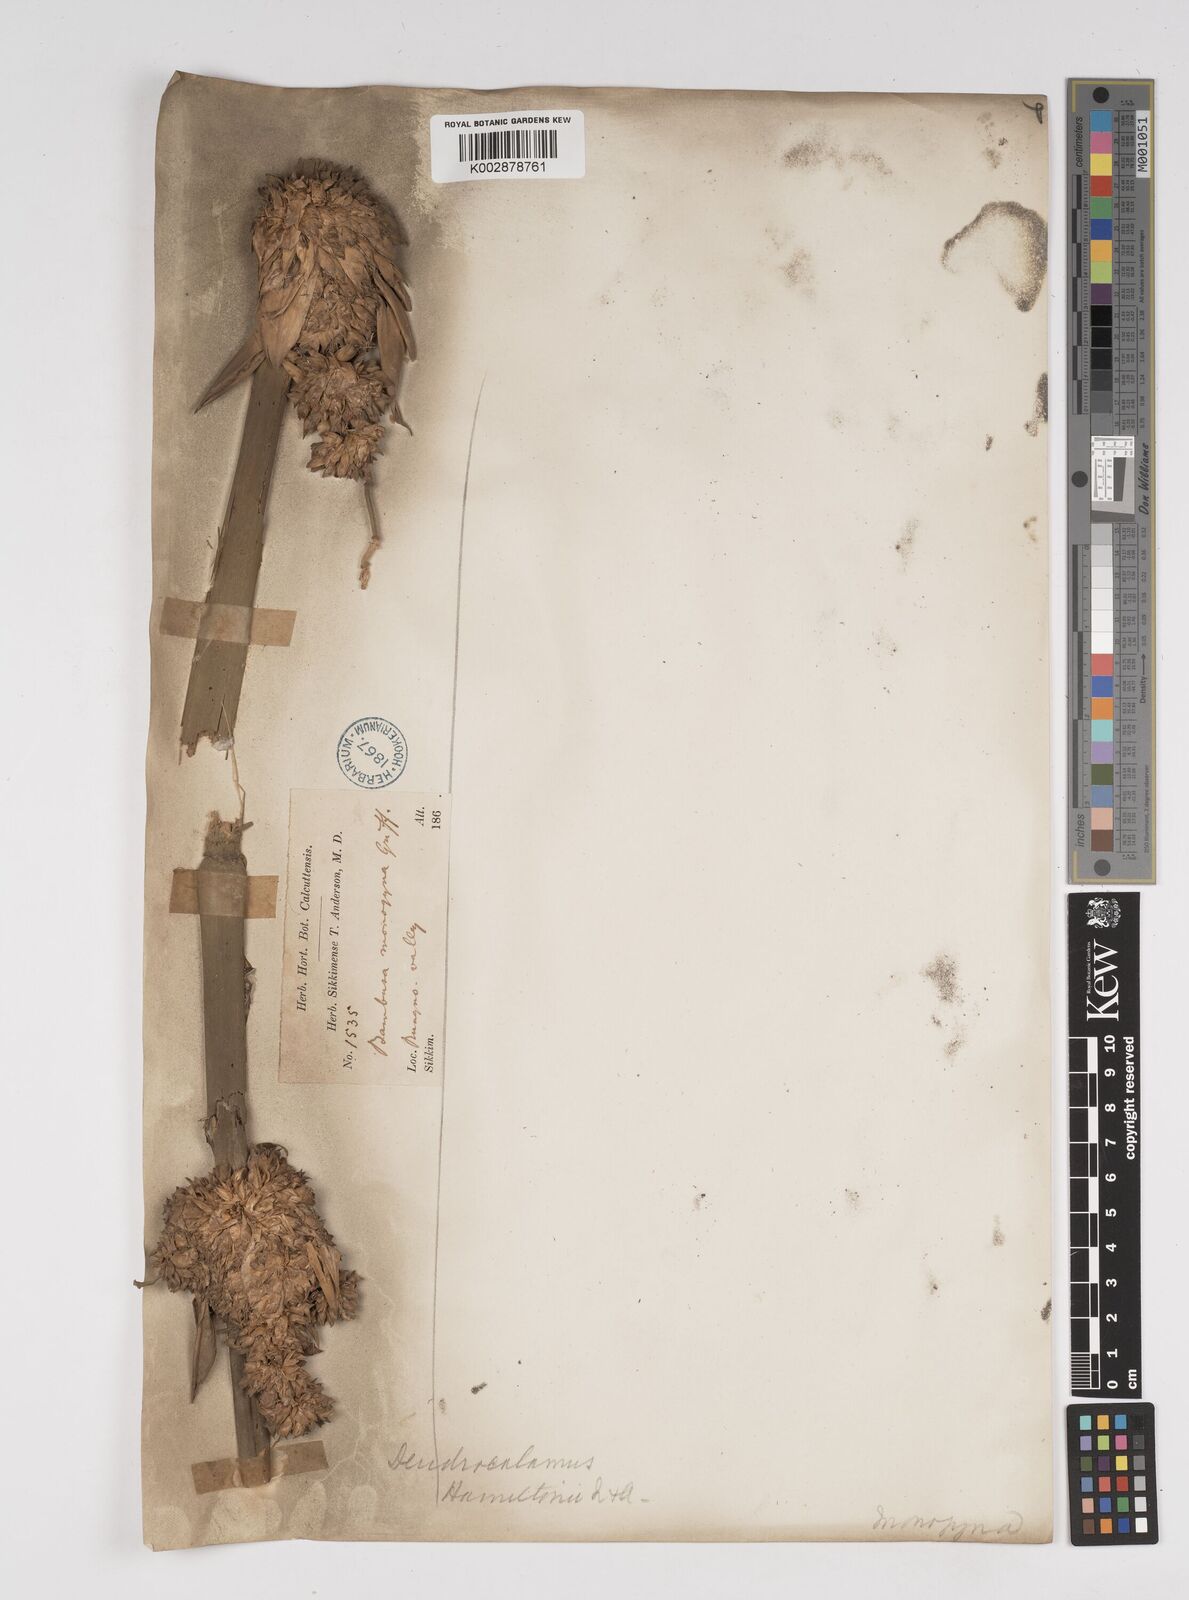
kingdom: Plantae
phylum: Tracheophyta
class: Liliopsida
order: Poales
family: Poaceae
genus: Dendrocalamus
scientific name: Dendrocalamus hamiltonii
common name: Tama bamboo
